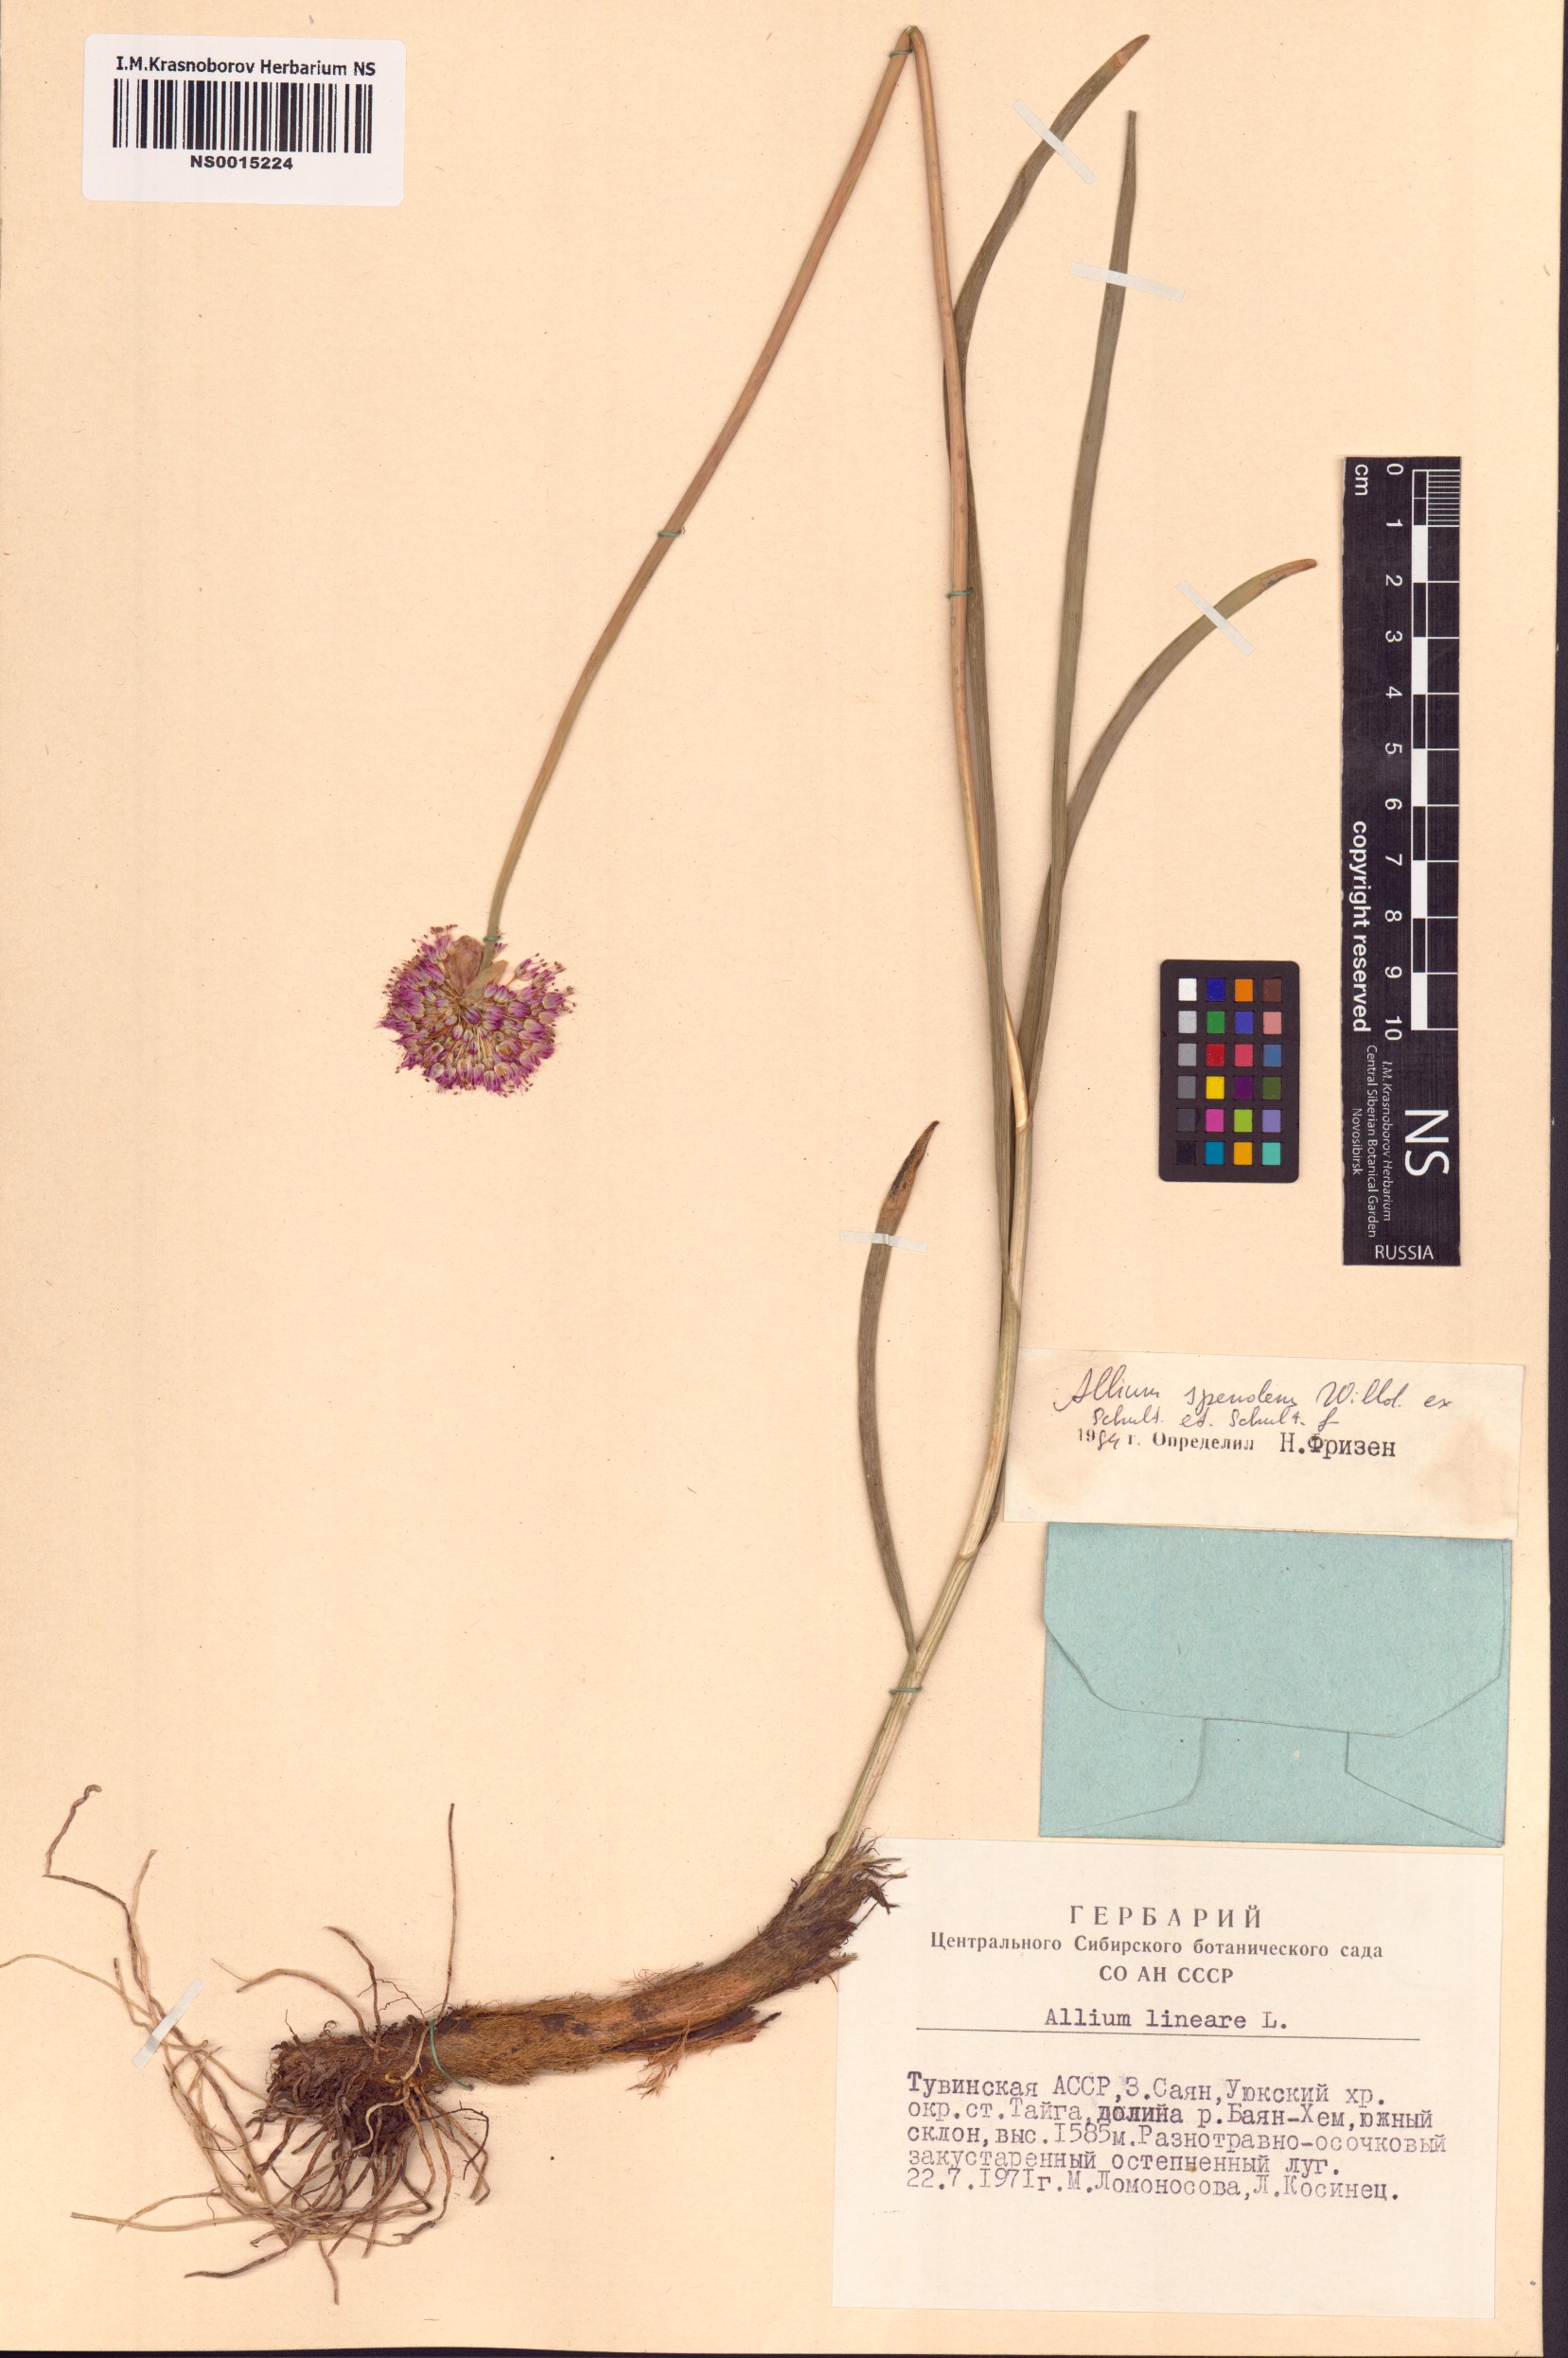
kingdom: Plantae
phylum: Tracheophyta
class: Liliopsida
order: Asparagales
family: Amaryllidaceae
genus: Allium
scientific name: Allium splendens
